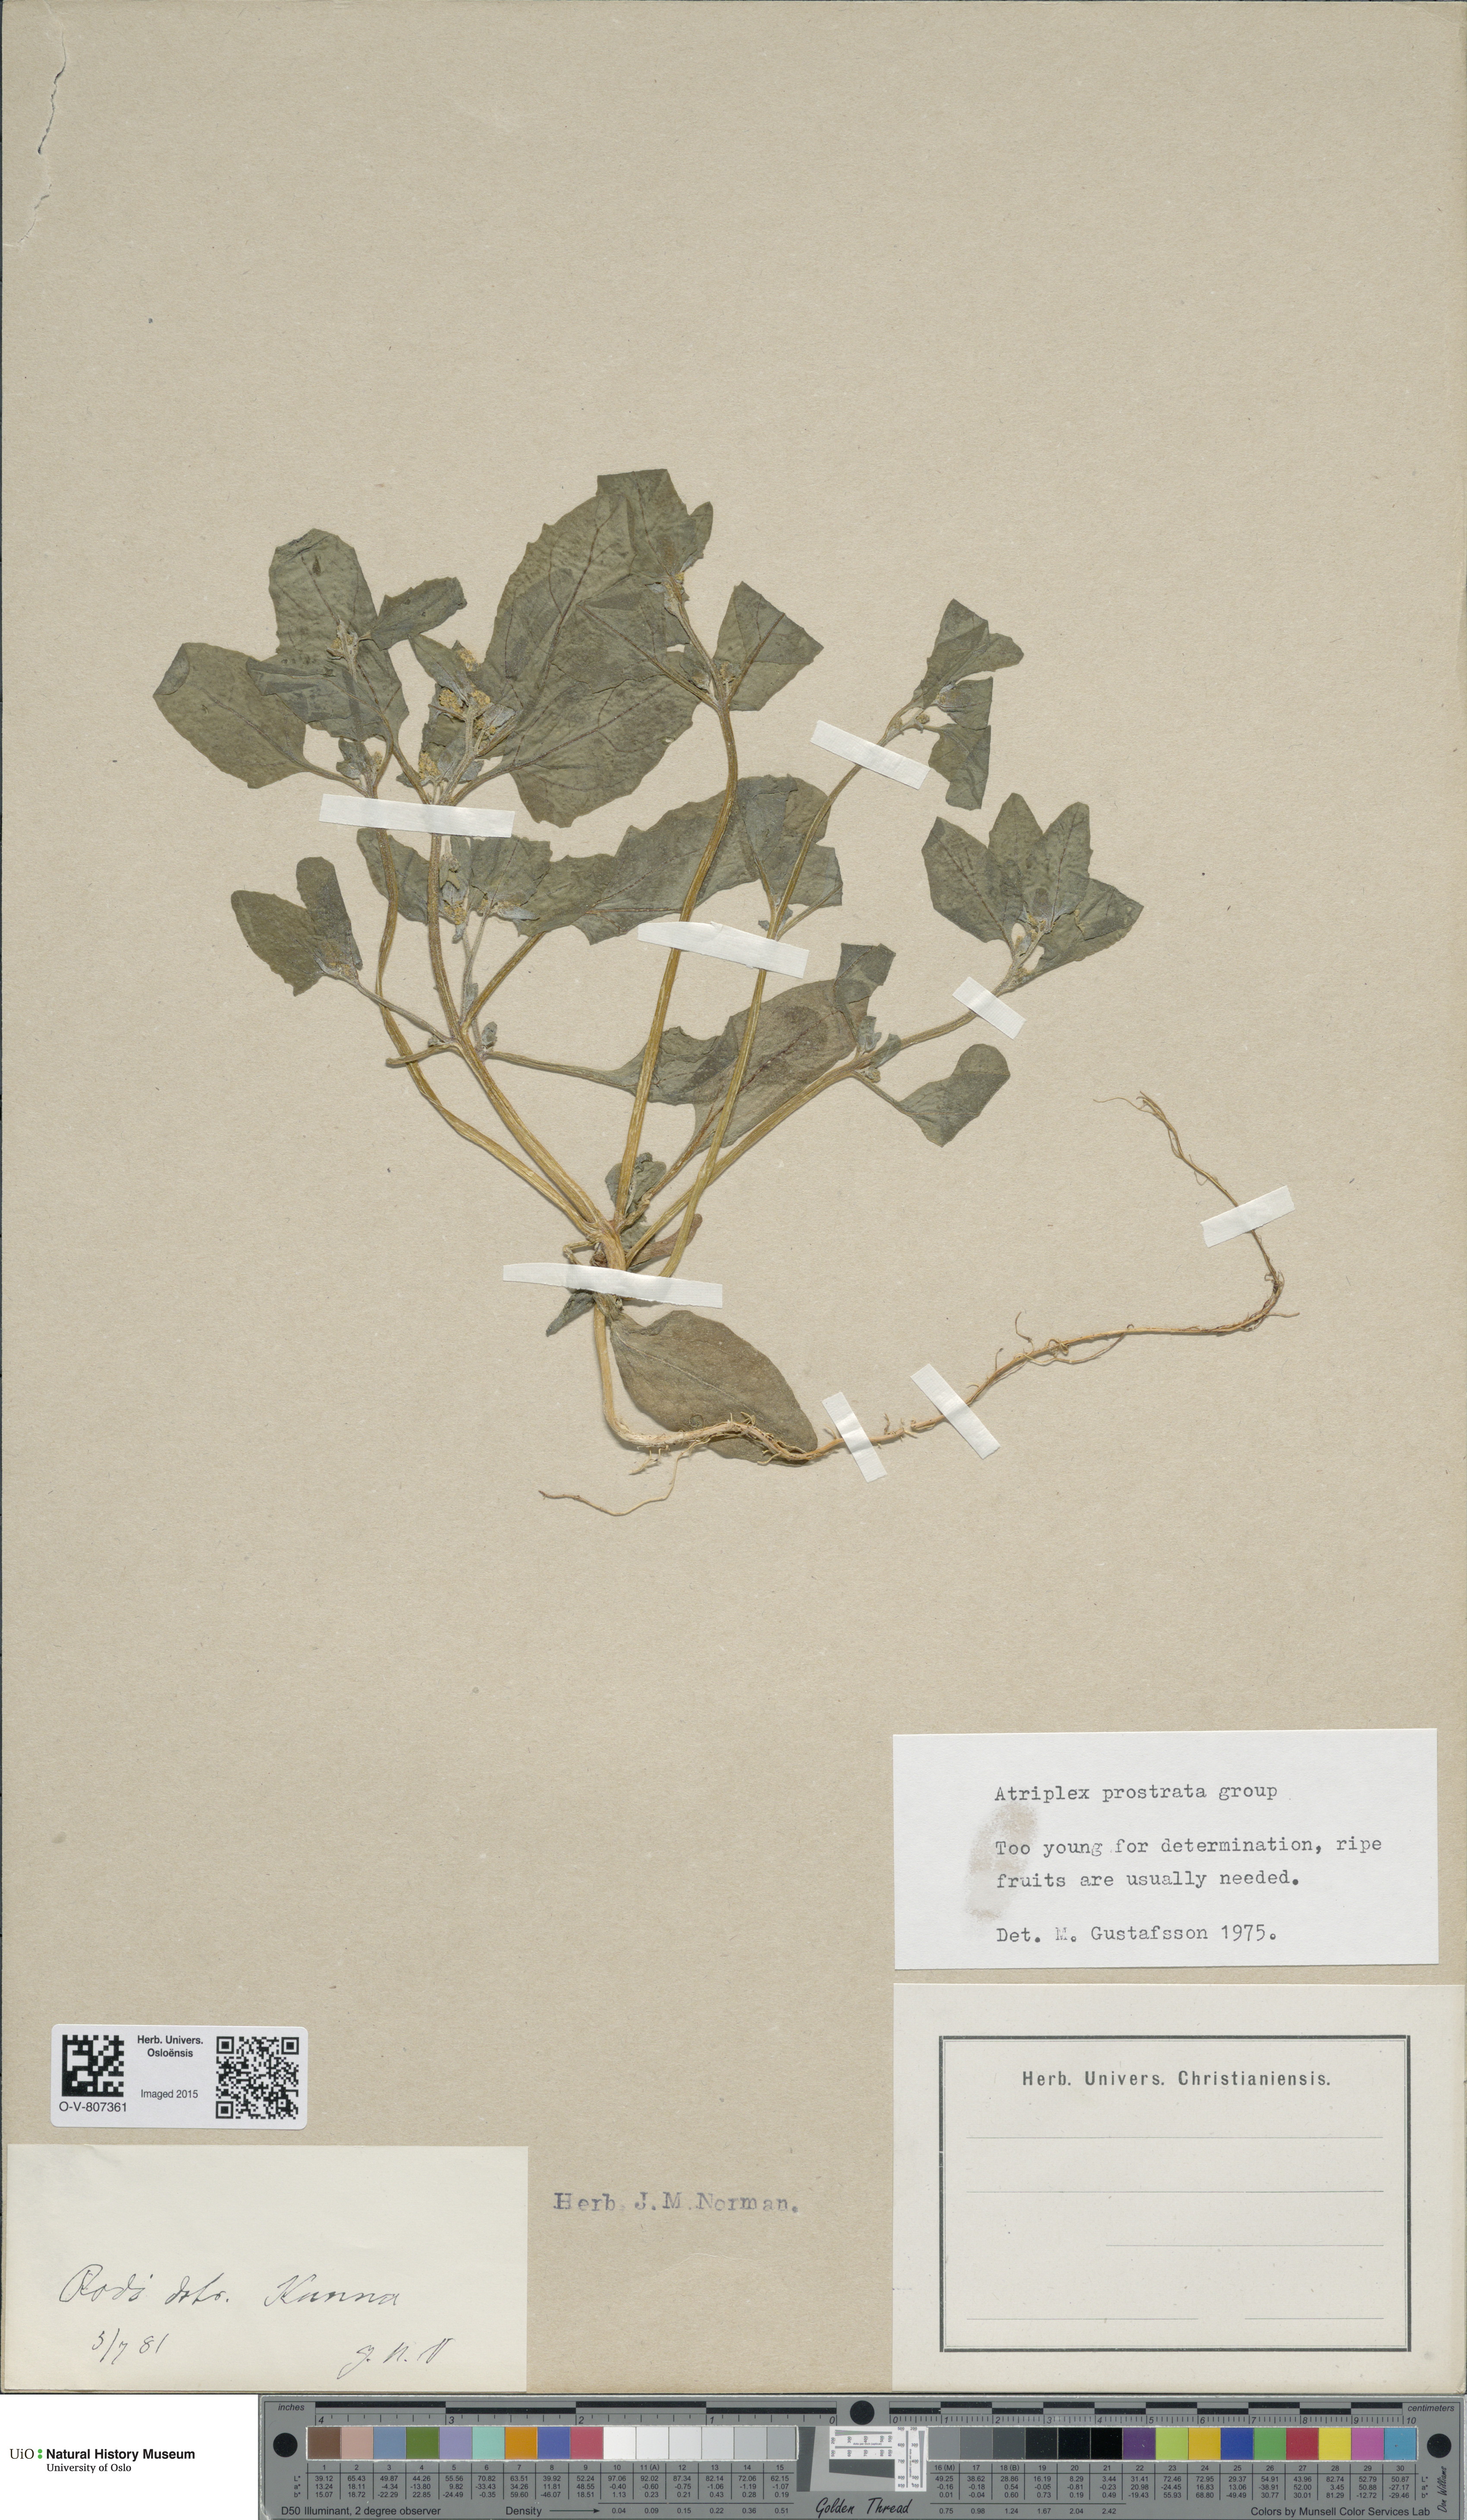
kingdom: Plantae
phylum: Tracheophyta
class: Magnoliopsida
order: Caryophyllales
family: Amaranthaceae
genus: Atriplex
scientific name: Atriplex prostrata
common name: Spear-leaved orache
